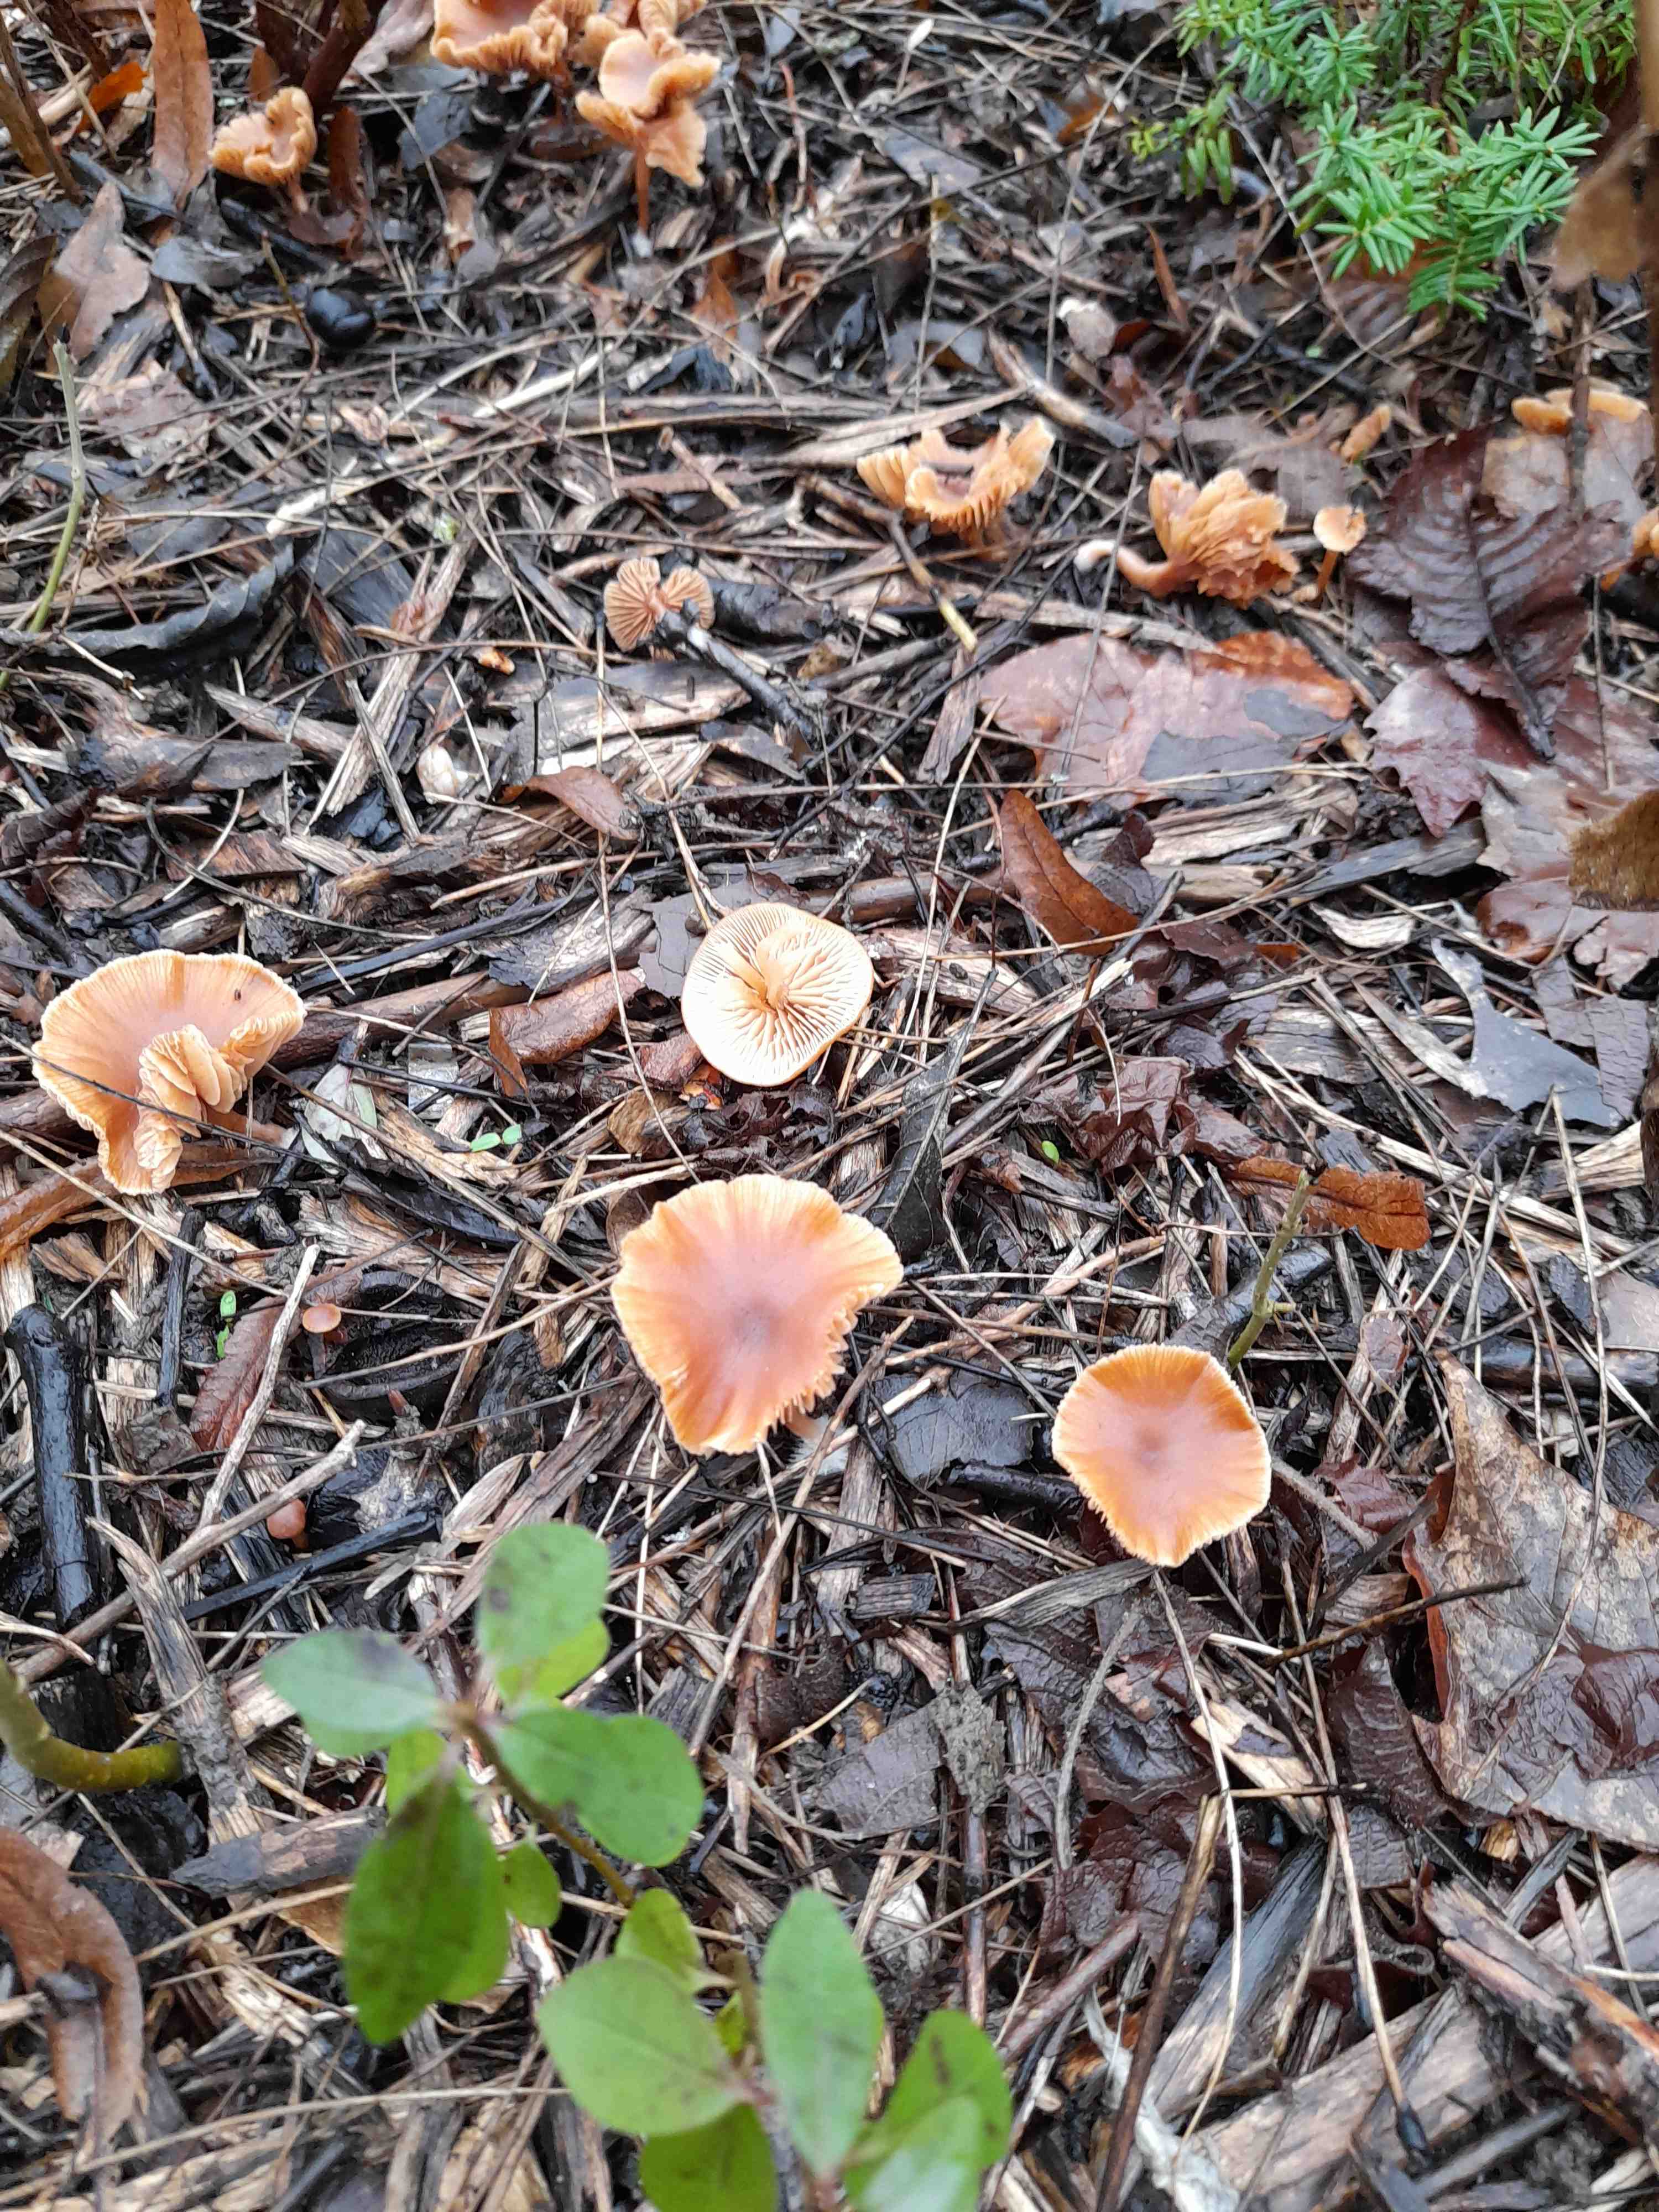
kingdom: Fungi
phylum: Basidiomycota
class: Agaricomycetes
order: Agaricales
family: Tubariaceae
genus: Tubaria
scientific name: Tubaria furfuracea
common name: kliddet fnughat
